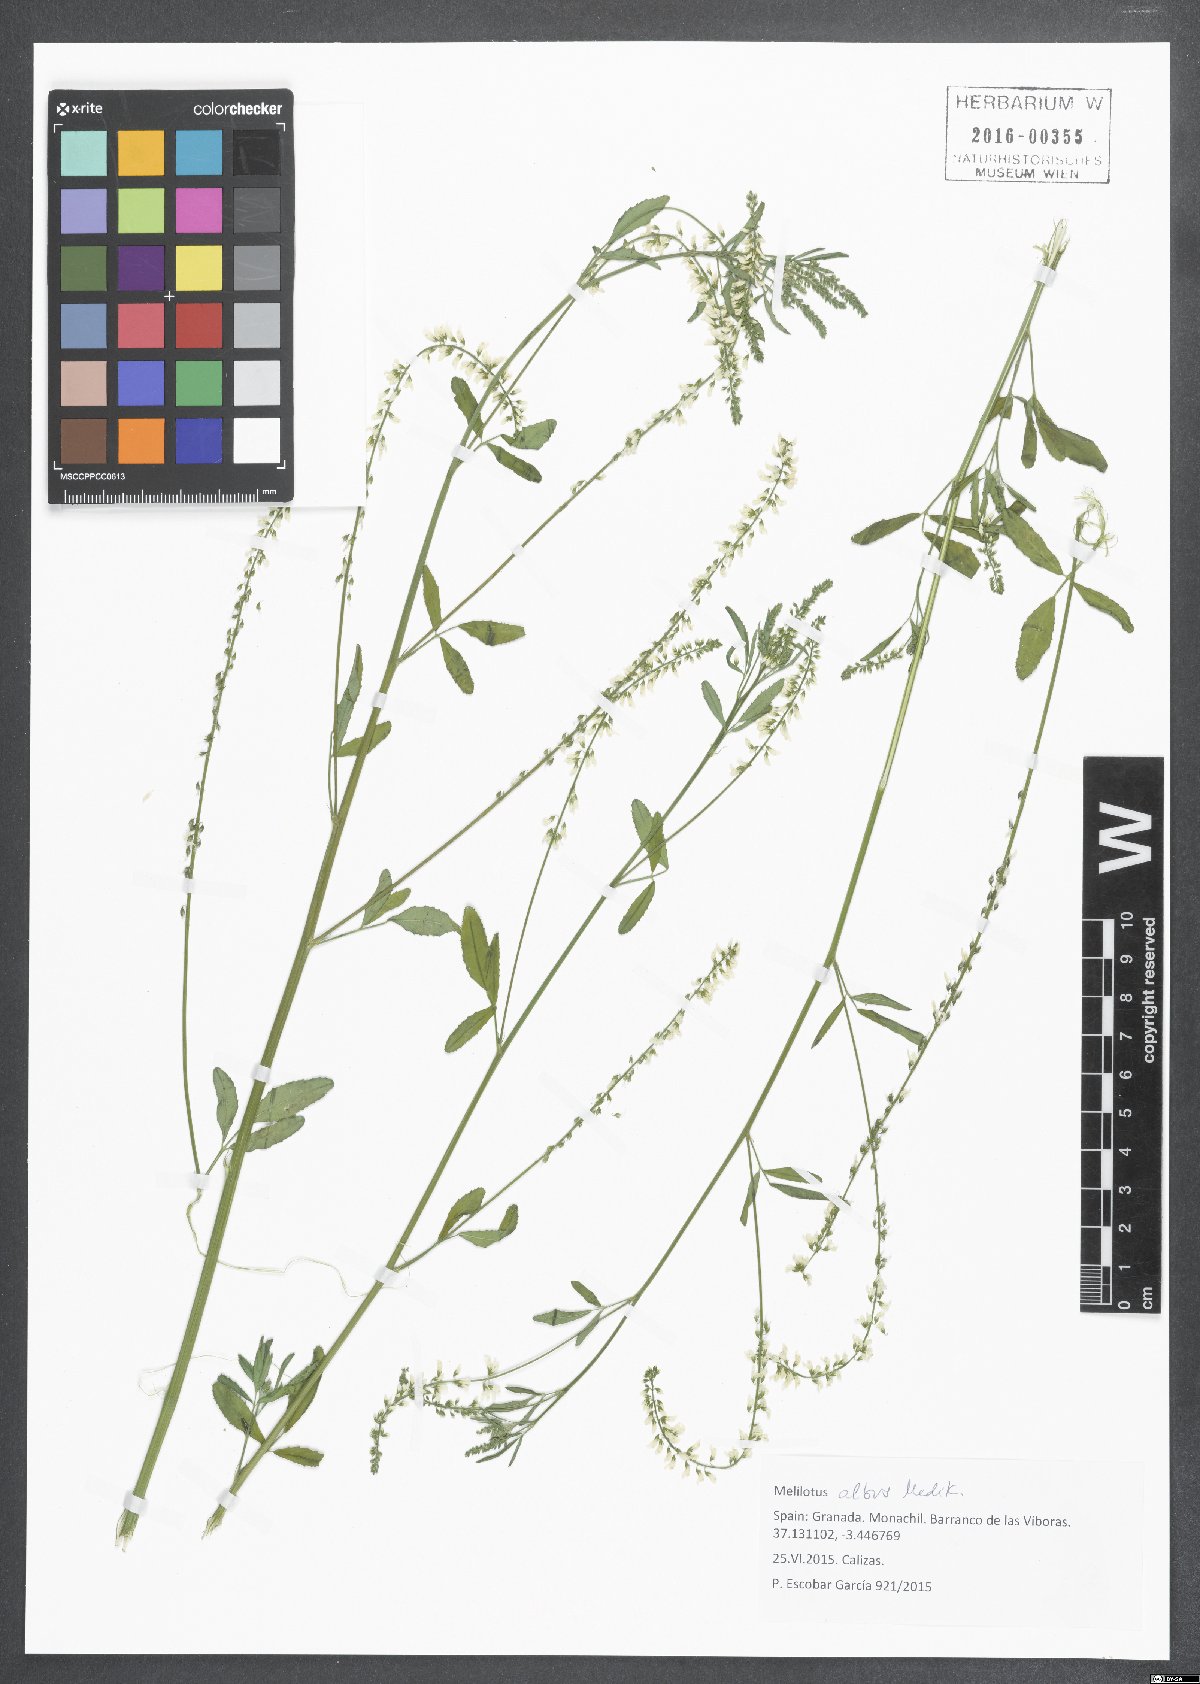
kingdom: Plantae
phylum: Tracheophyta
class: Magnoliopsida
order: Fabales
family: Fabaceae
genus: Melilotus
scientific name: Melilotus albus
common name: White melilot
